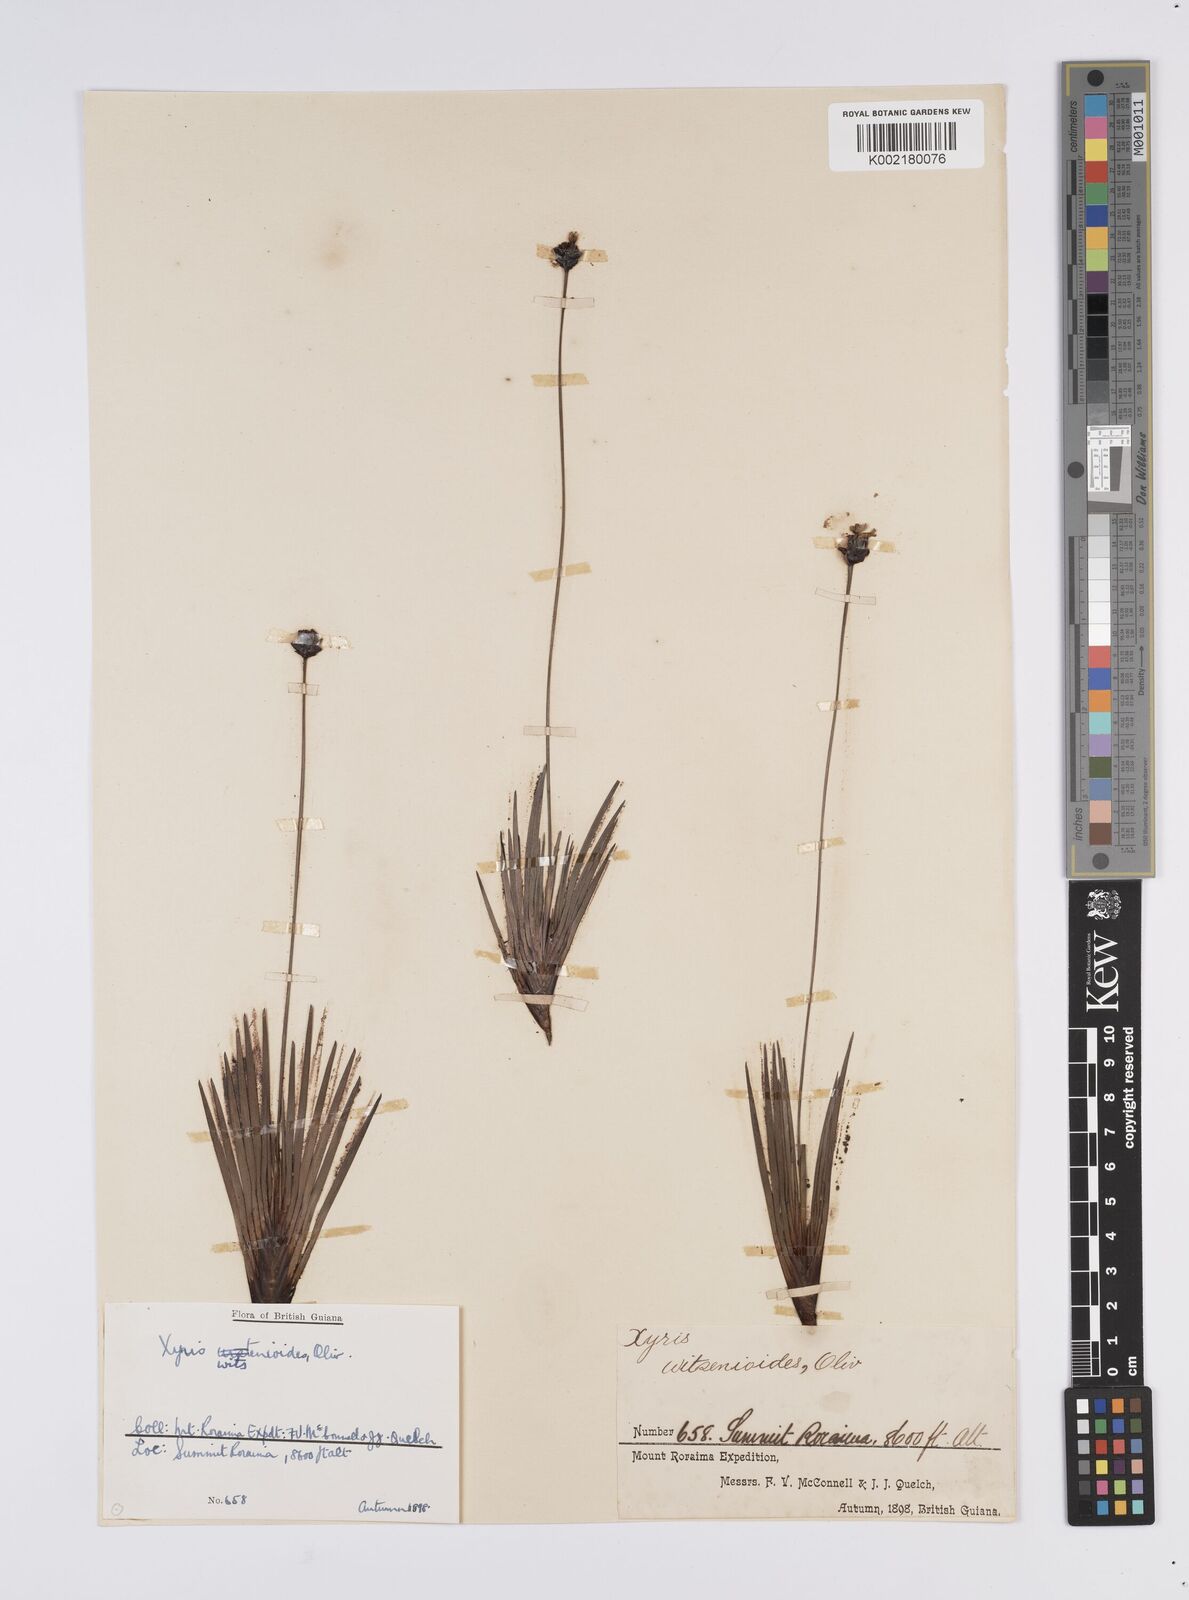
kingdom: Plantae
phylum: Tracheophyta
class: Liliopsida
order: Poales
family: Xyridaceae
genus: Xyris
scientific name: Xyris witsenioides
